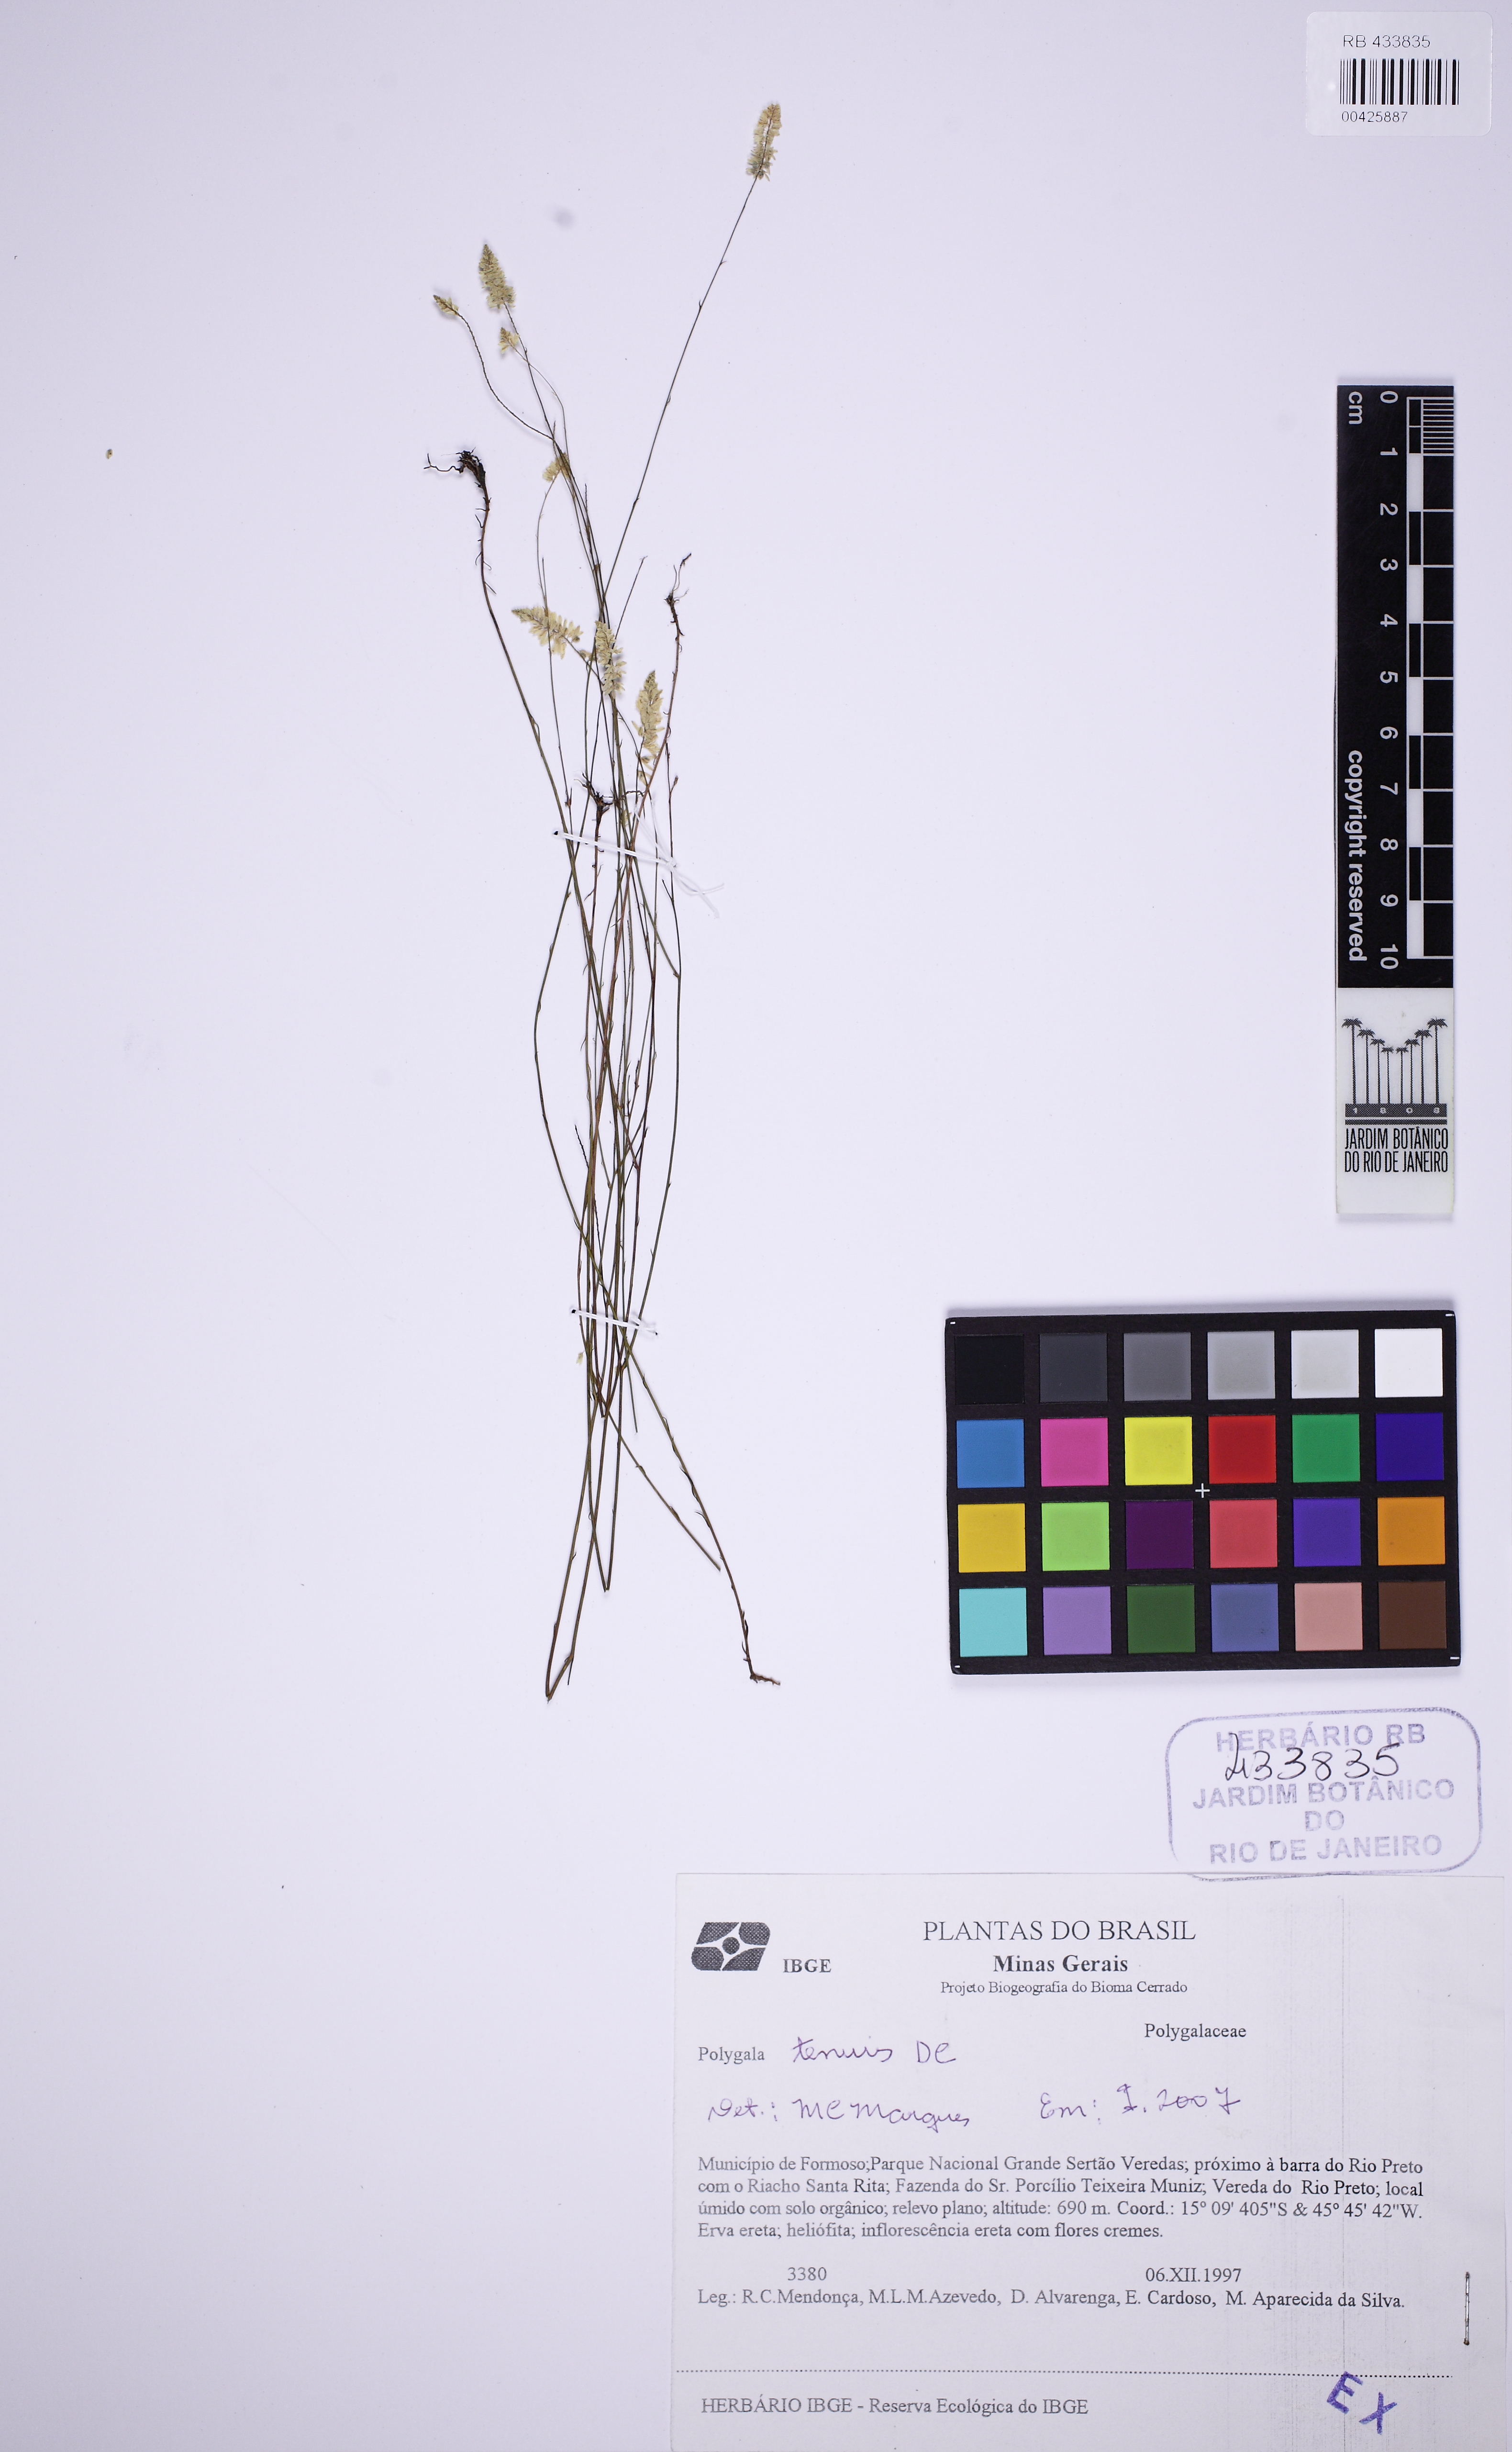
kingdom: Plantae
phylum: Tracheophyta
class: Magnoliopsida
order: Fabales
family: Polygalaceae
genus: Polygala
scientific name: Polygala tenuis
